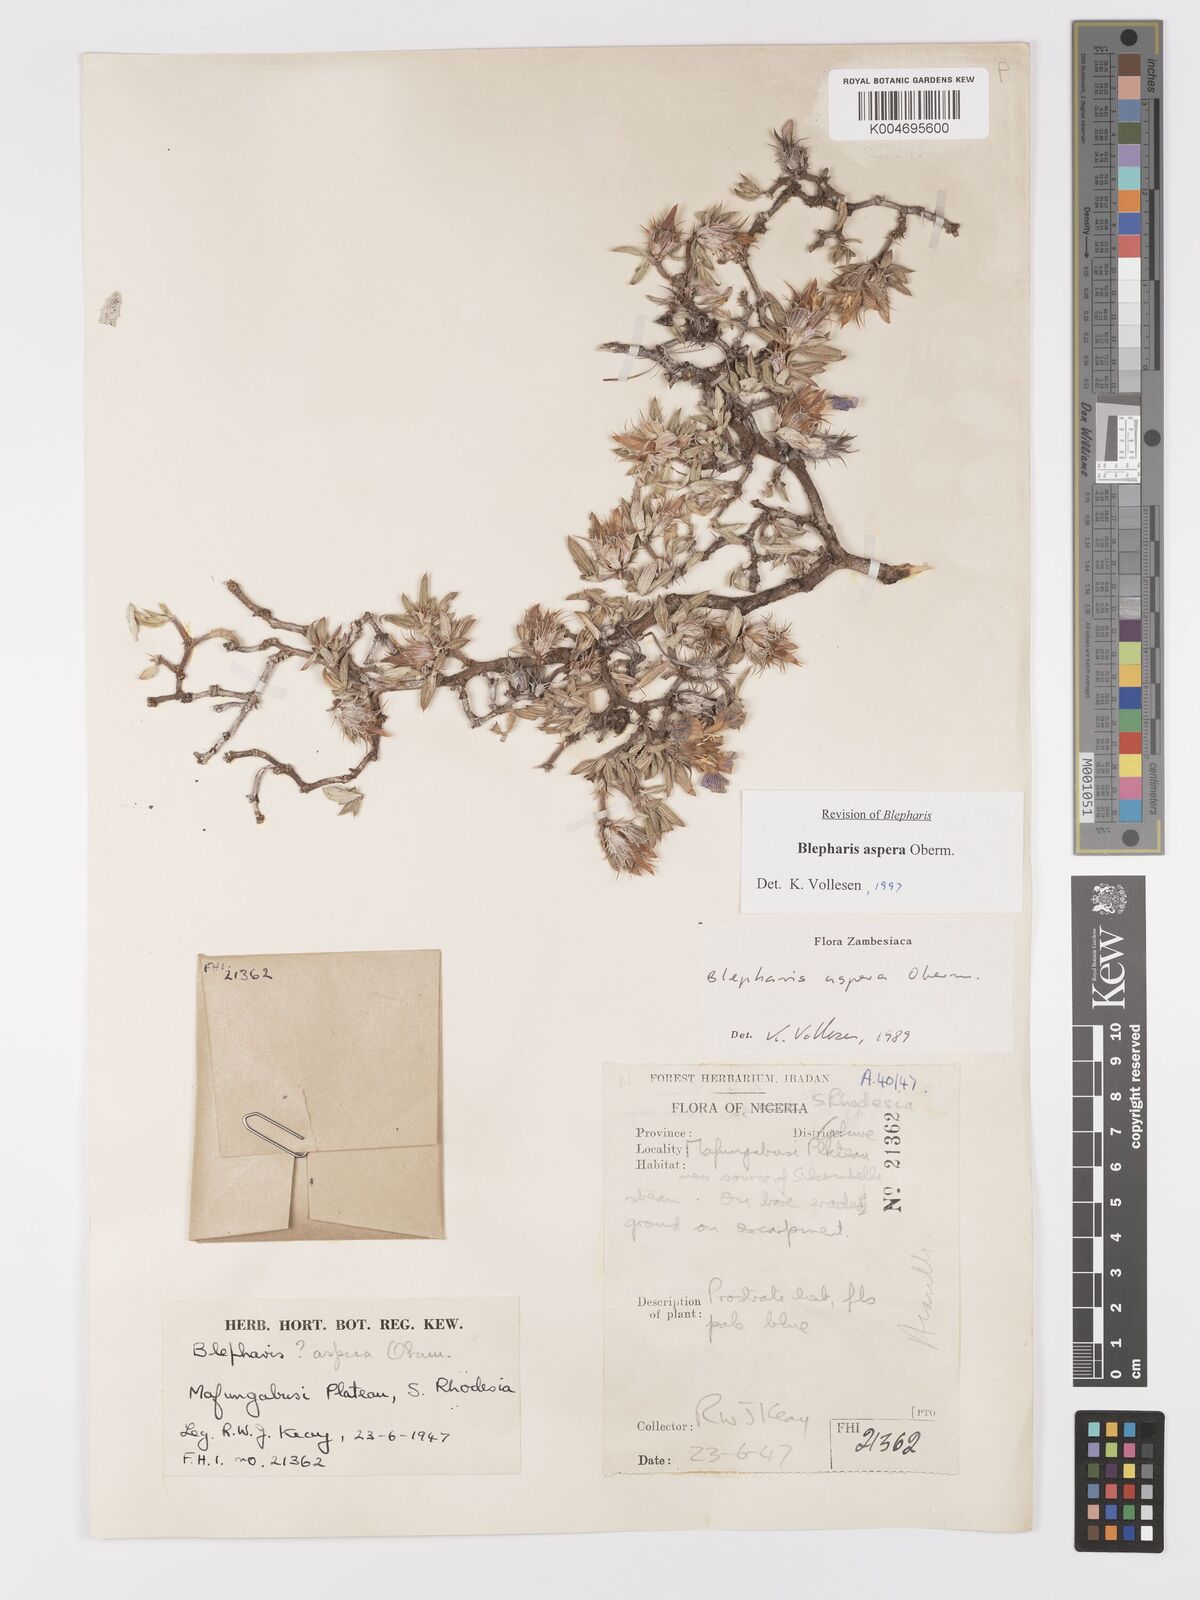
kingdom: Plantae
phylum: Tracheophyta
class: Magnoliopsida
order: Lamiales
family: Acanthaceae
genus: Blepharis
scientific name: Blepharis aspera
